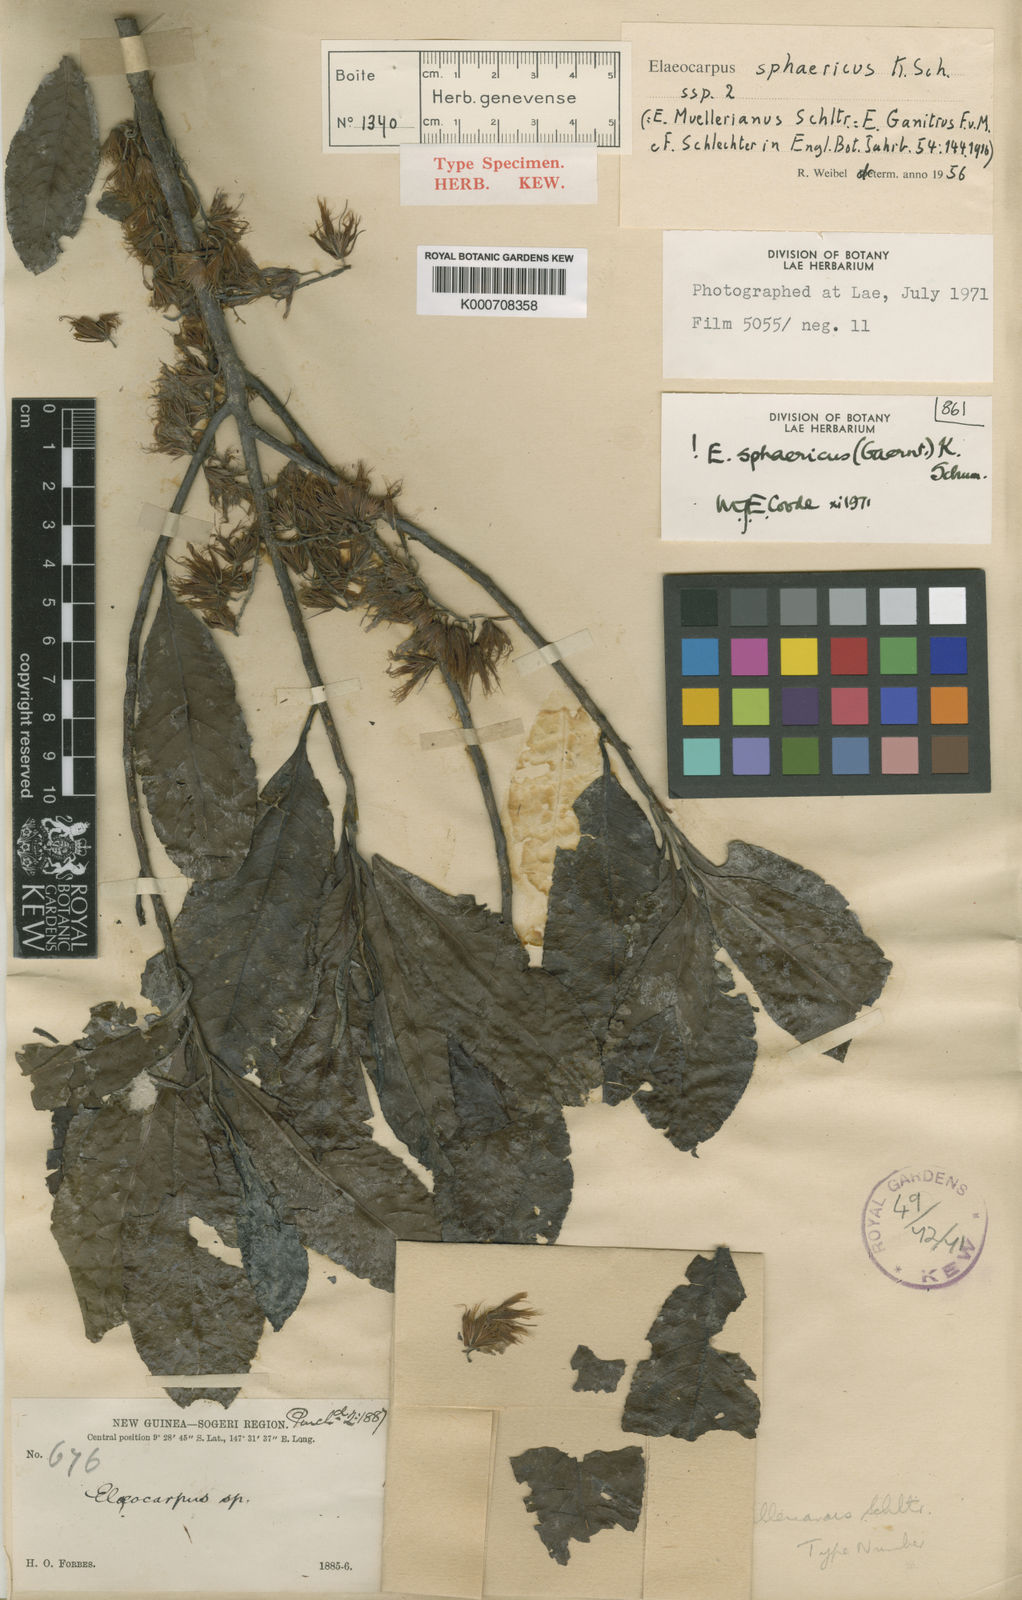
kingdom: Plantae
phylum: Tracheophyta
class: Magnoliopsida
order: Oxalidales
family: Elaeocarpaceae
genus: Elaeocarpus
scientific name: Elaeocarpus sphaericus
